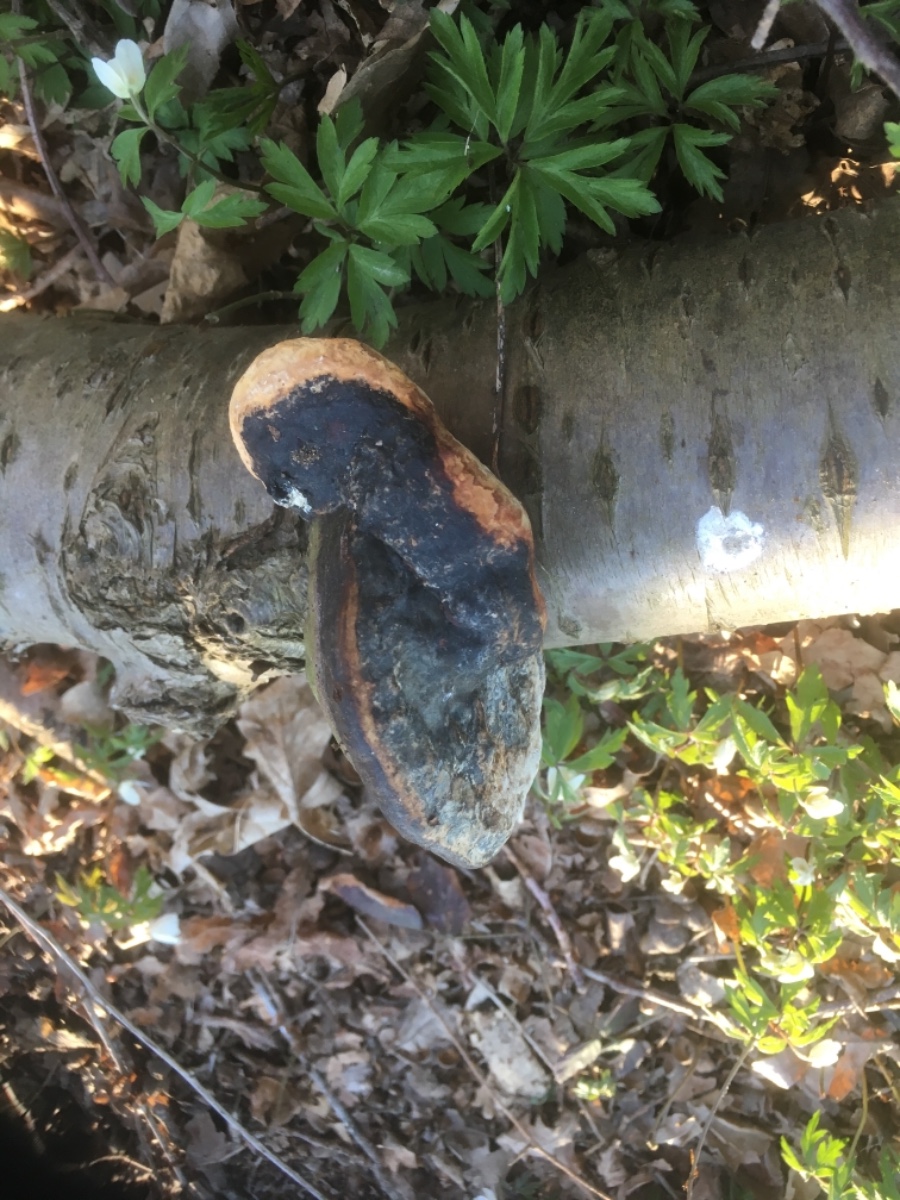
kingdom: Fungi
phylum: Basidiomycota
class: Agaricomycetes
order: Polyporales
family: Fomitopsidaceae
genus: Fomitopsis
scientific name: Fomitopsis pinicola
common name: randbæltet hovporesvamp
